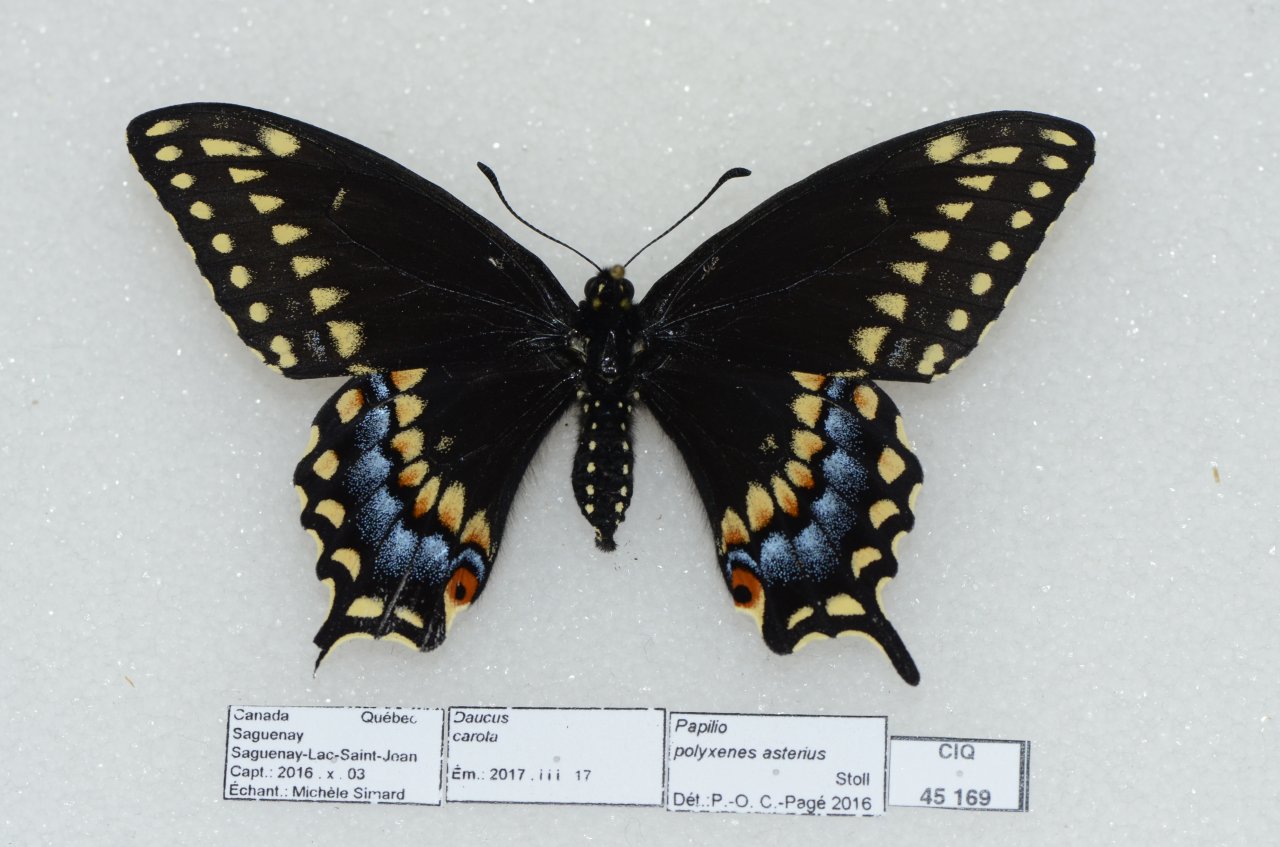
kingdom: Animalia
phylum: Arthropoda
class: Insecta
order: Lepidoptera
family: Papilionidae
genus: Papilio
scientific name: Papilio polyxenes
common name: Black Swallowtail
